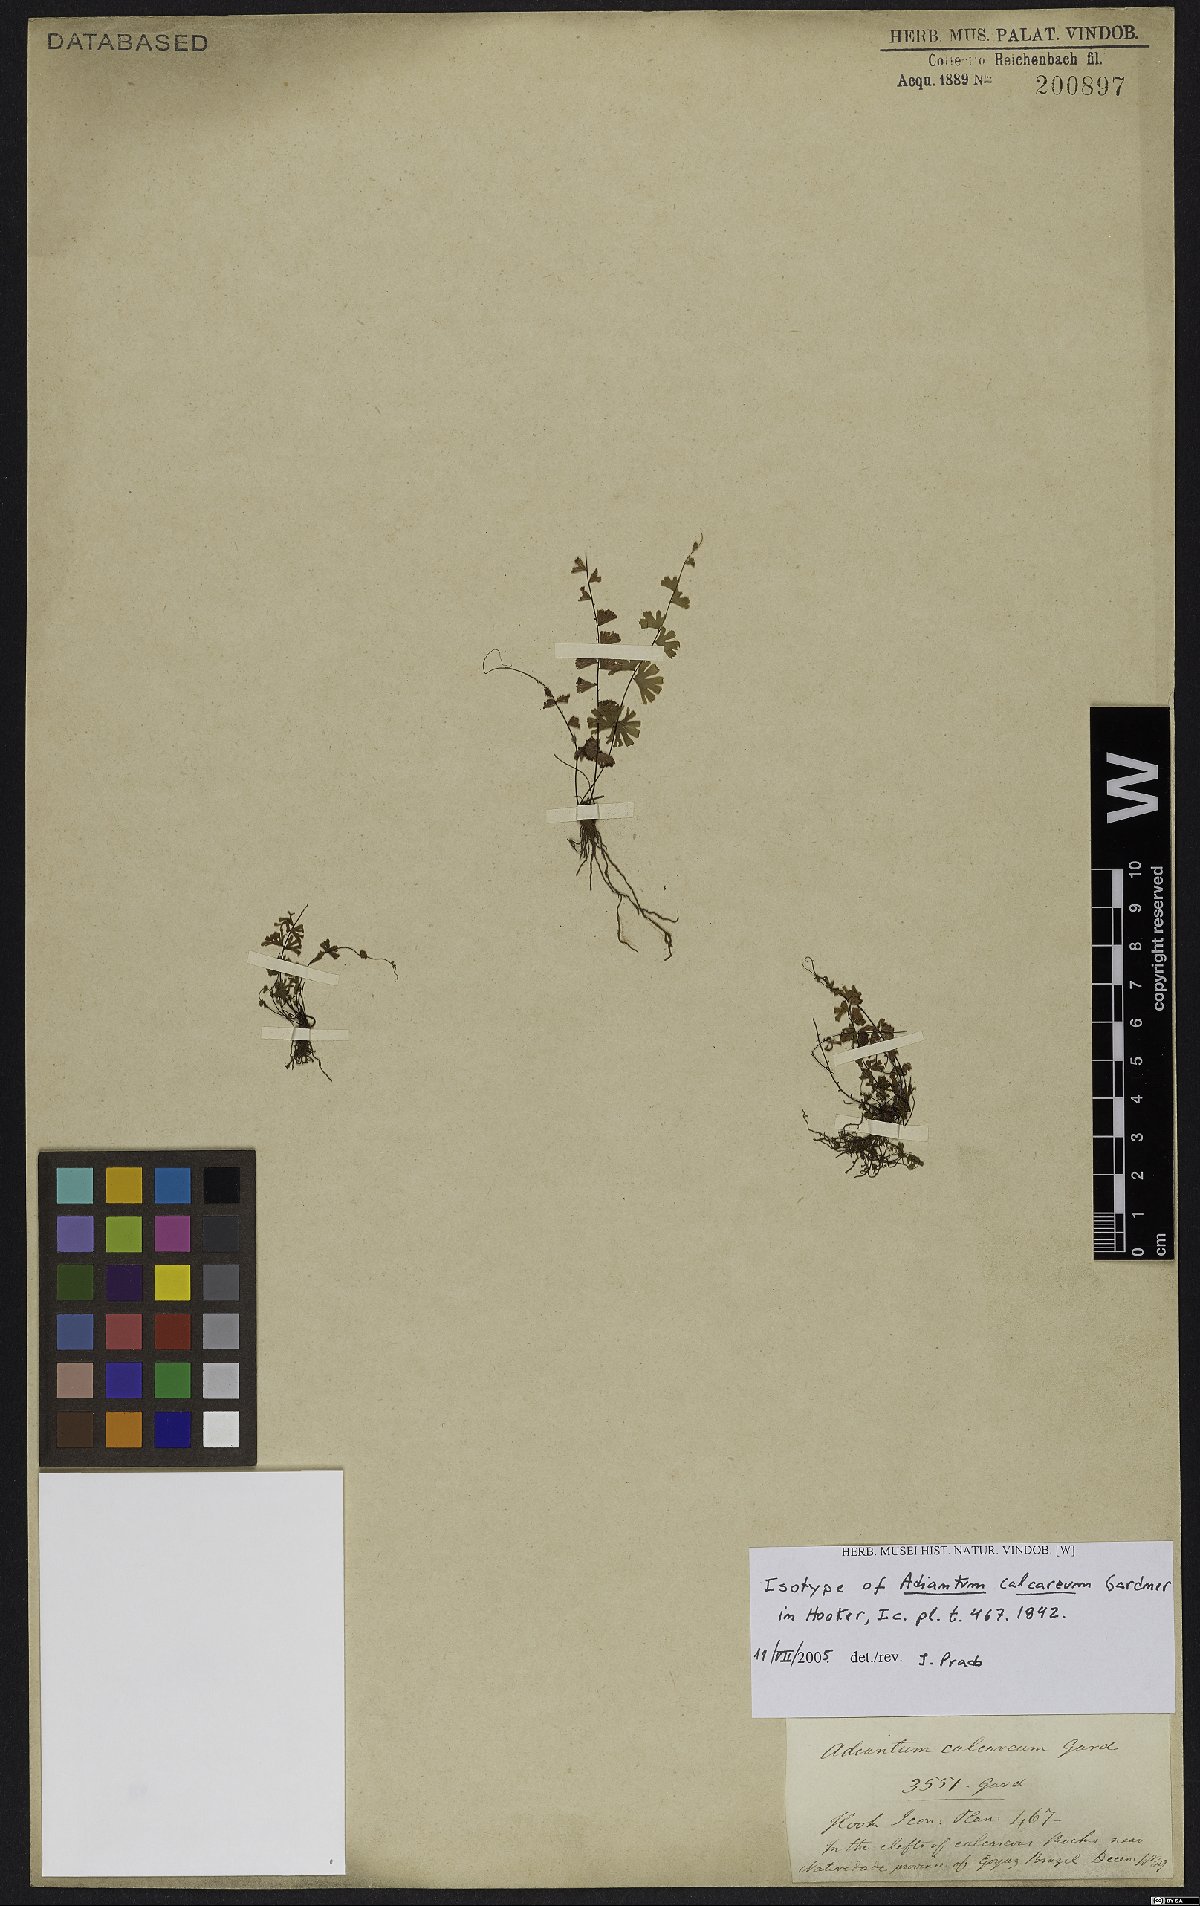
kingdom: Plantae
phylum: Tracheophyta
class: Polypodiopsida
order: Polypodiales
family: Pteridaceae
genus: Adiantum
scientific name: Adiantum calcareum
